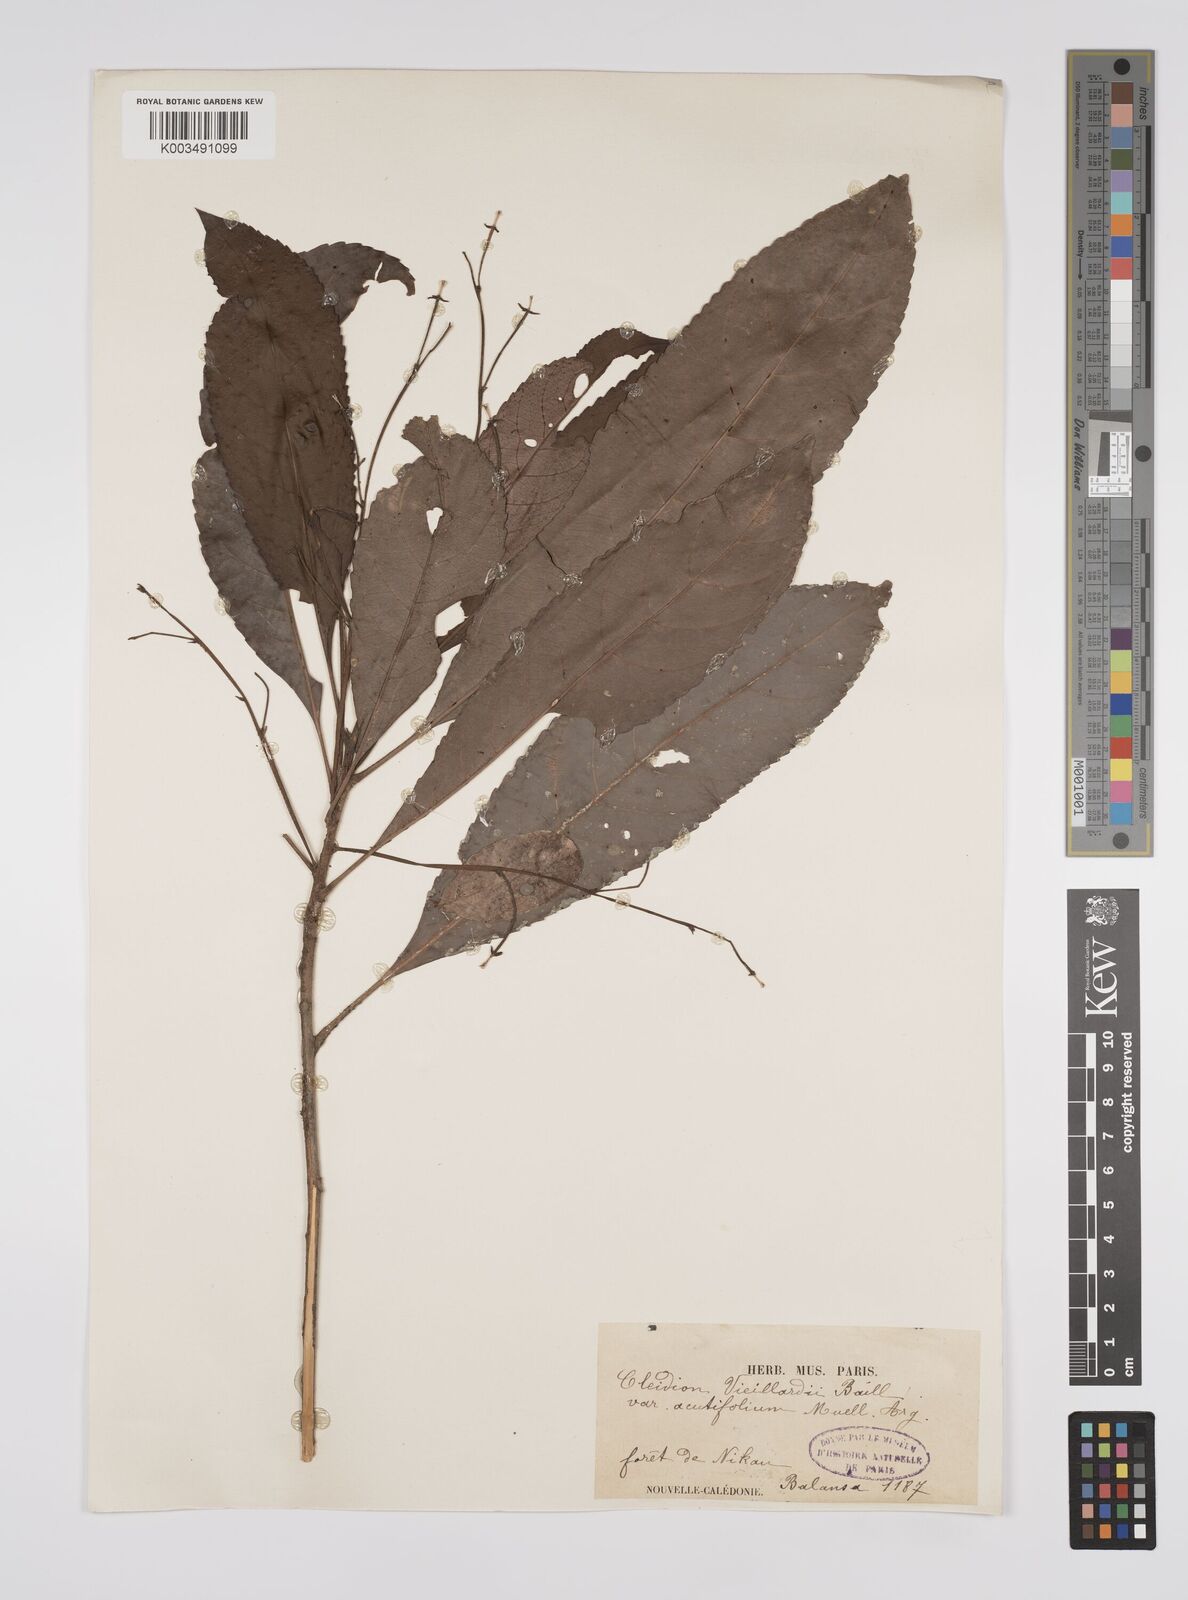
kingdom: Plantae
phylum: Tracheophyta
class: Magnoliopsida
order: Malpighiales
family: Euphorbiaceae
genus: Cleidion
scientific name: Cleidion vieillardii
